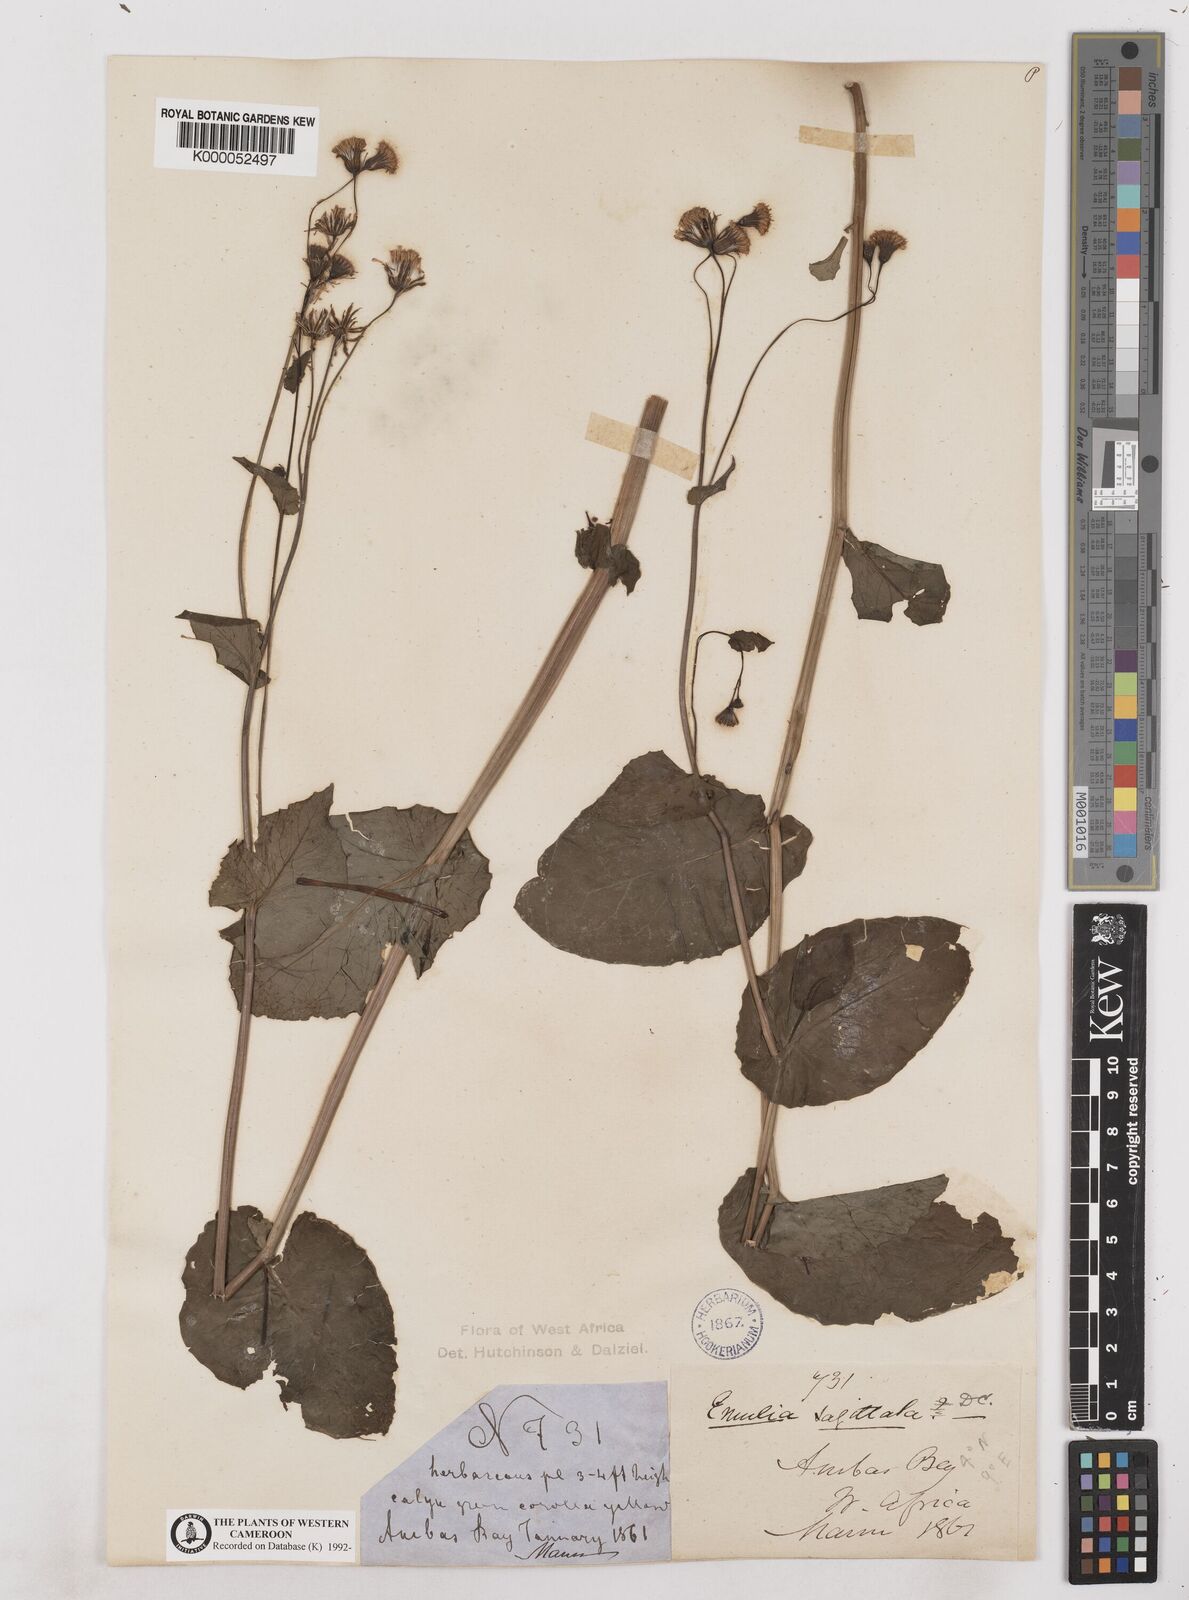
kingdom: Plantae
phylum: Tracheophyta
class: Magnoliopsida
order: Asterales
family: Asteraceae
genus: Emilia
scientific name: Emilia
